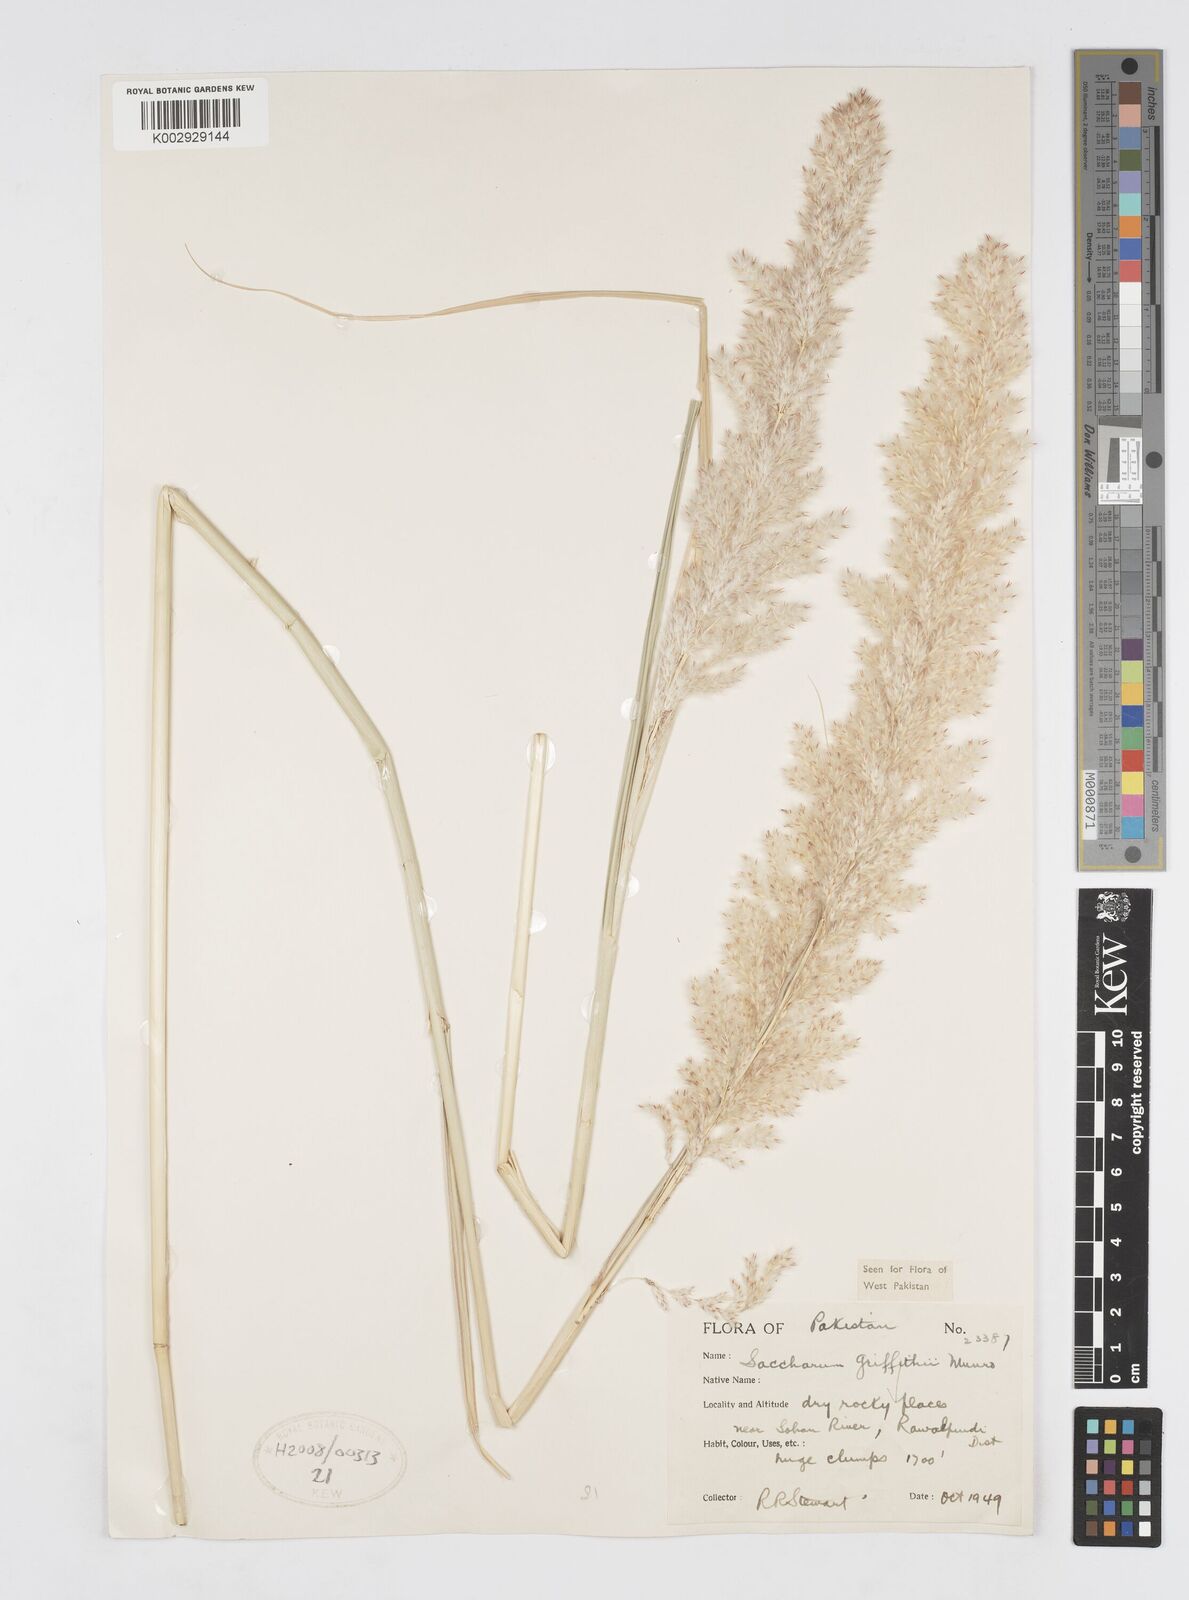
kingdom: Plantae
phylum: Tracheophyta
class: Liliopsida
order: Poales
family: Poaceae
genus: Saccharum
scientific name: Saccharum griffithii
